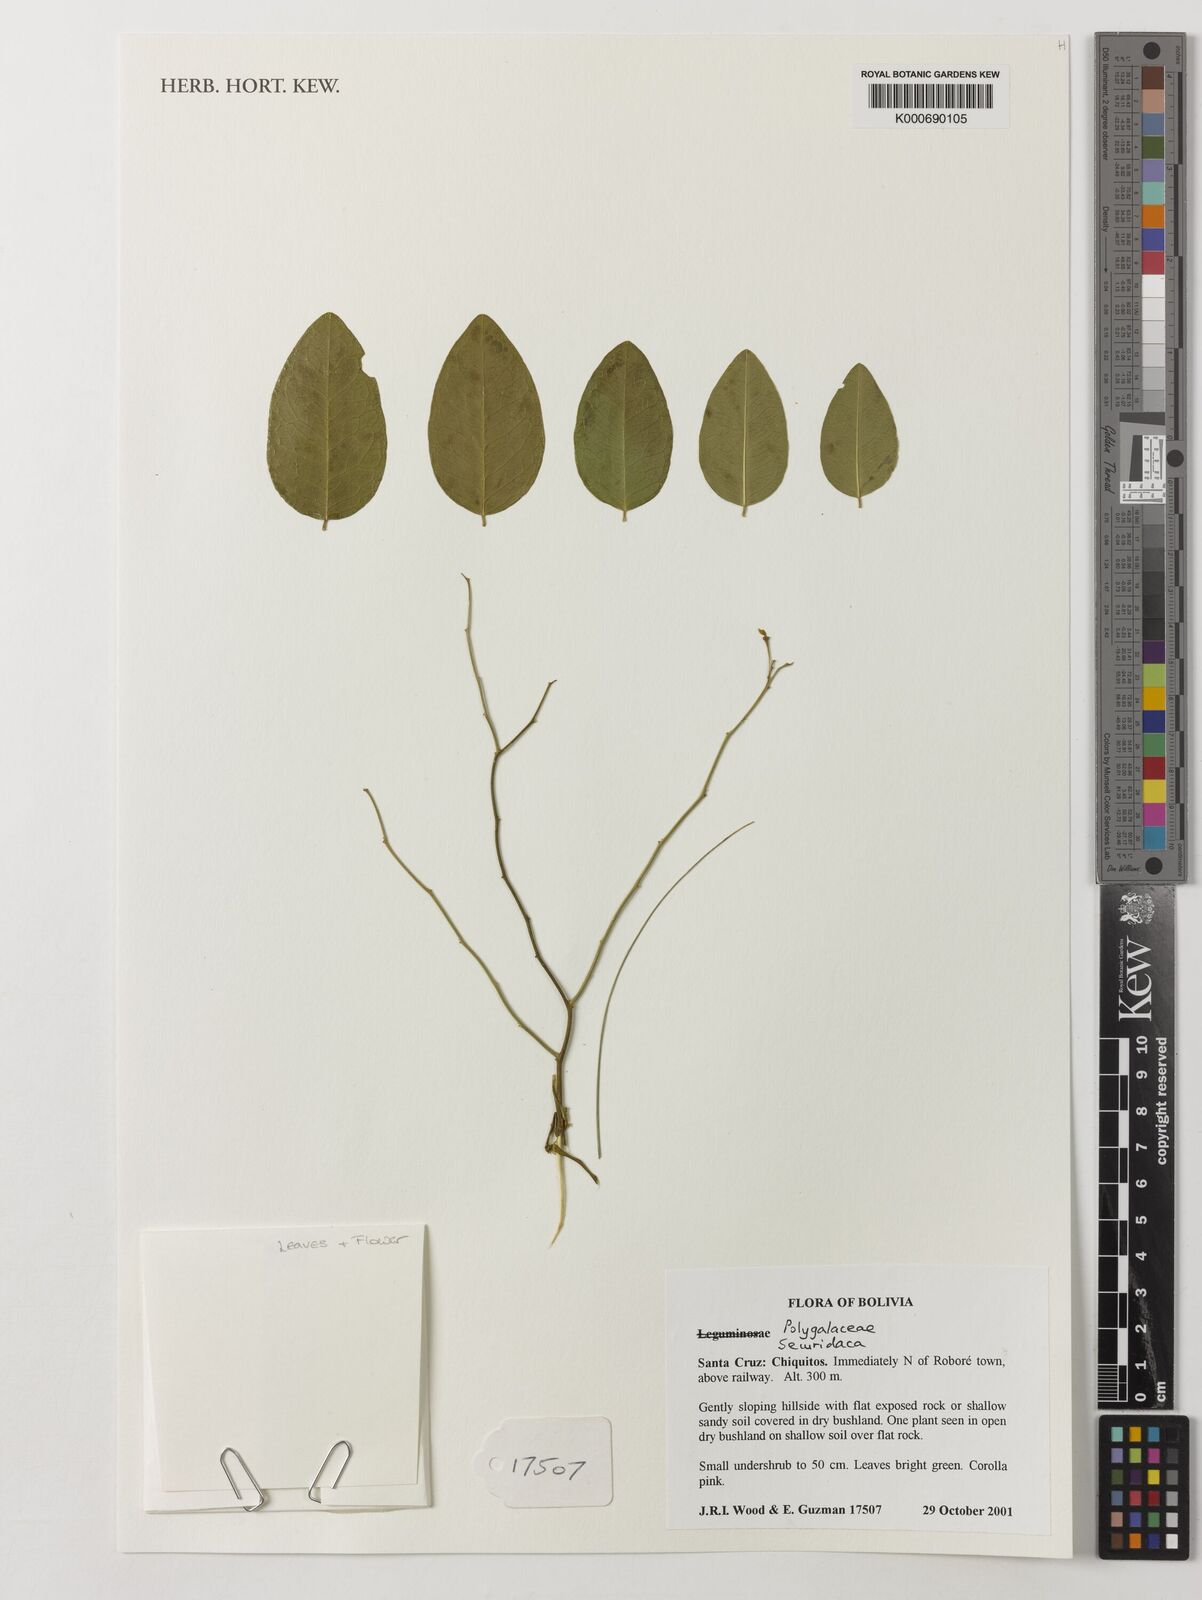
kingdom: Plantae
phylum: Tracheophyta
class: Magnoliopsida
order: Fabales
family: Polygalaceae
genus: Securidaca
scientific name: Securidaca
